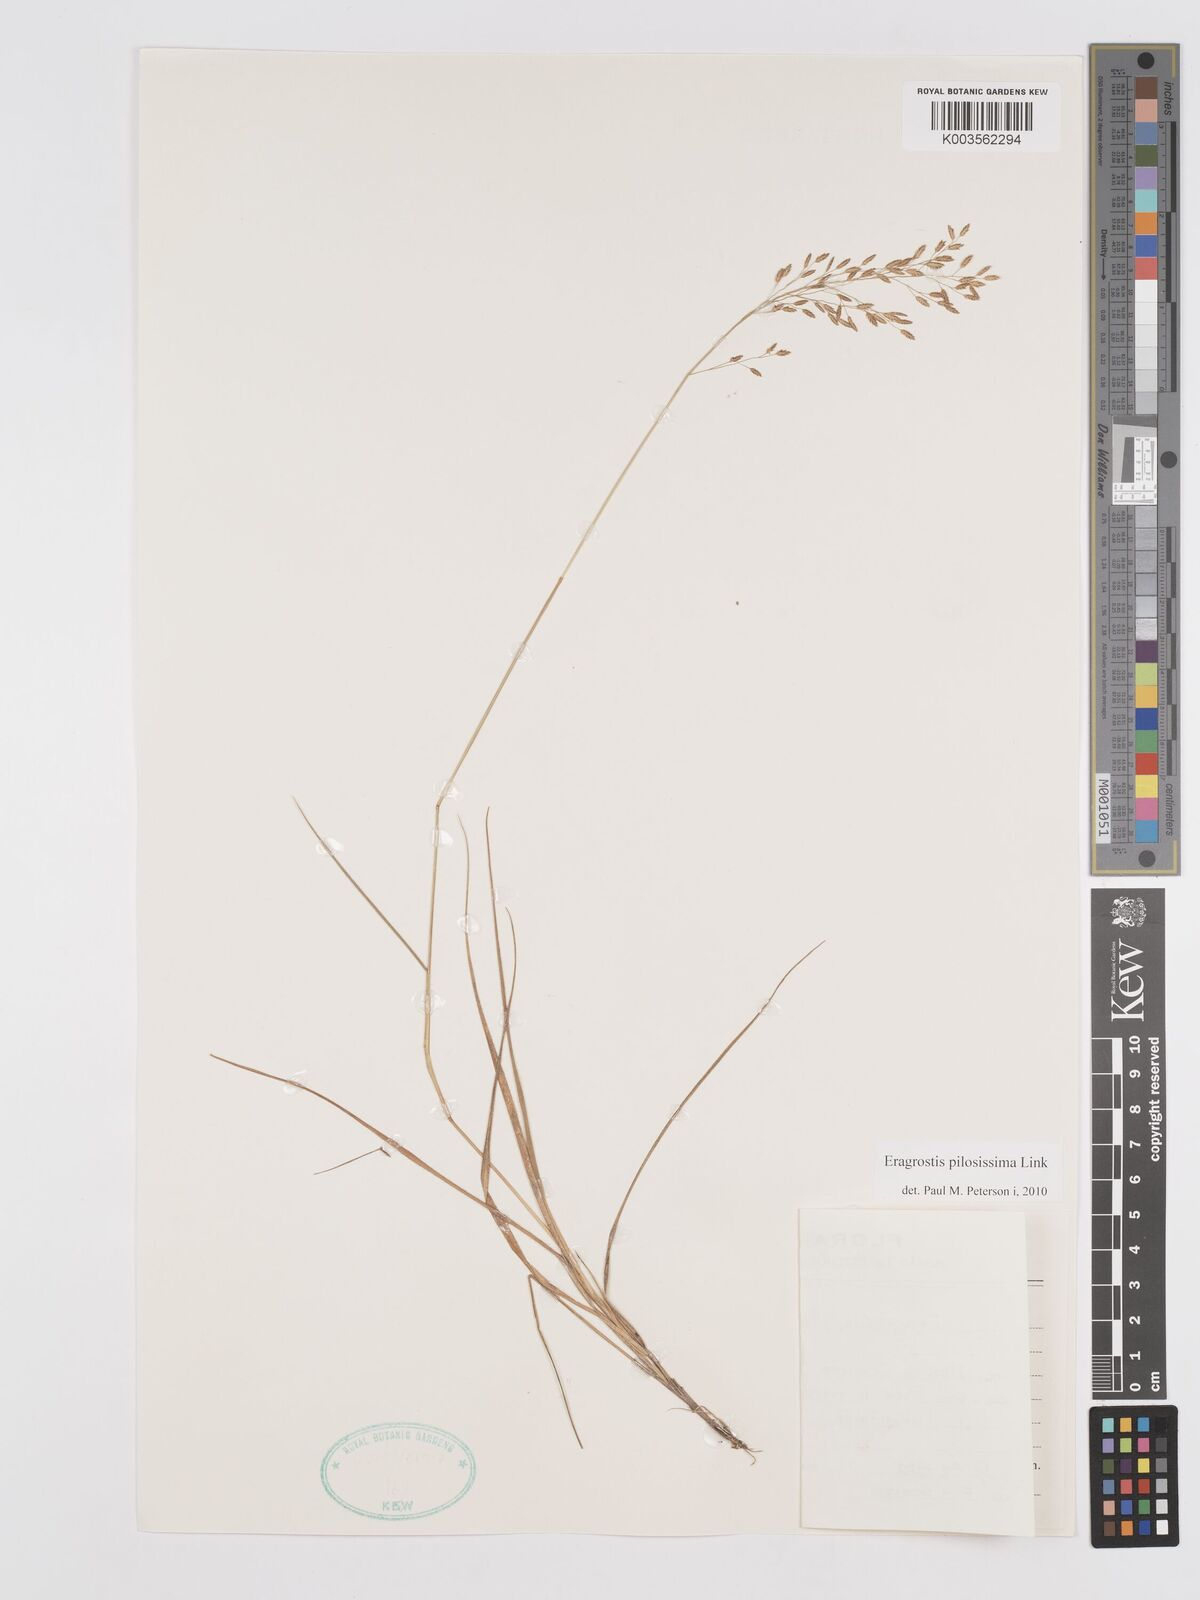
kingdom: Plantae
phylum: Tracheophyta
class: Liliopsida
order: Poales
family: Poaceae
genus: Eragrostis
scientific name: Eragrostis pilosissima
